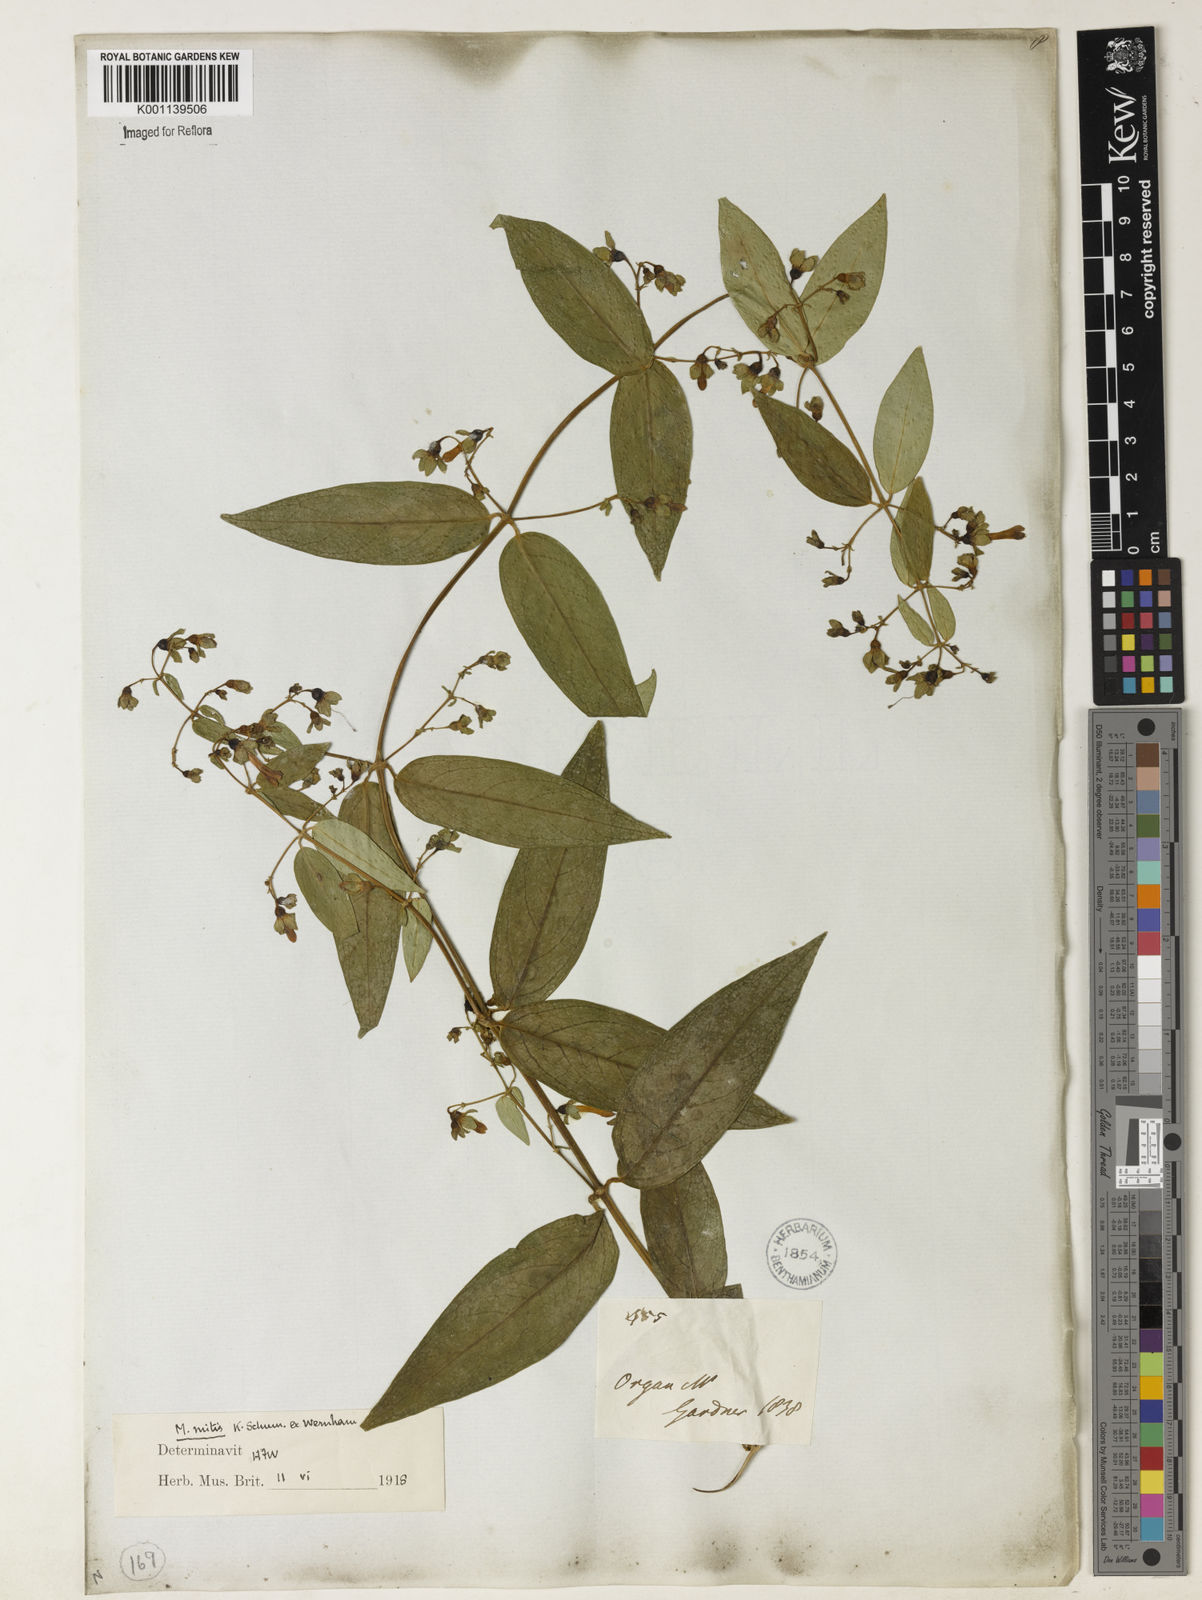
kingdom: Plantae
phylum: Tracheophyta
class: Magnoliopsida
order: Gentianales
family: Rubiaceae
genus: Manettia
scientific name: Manettia mitis
